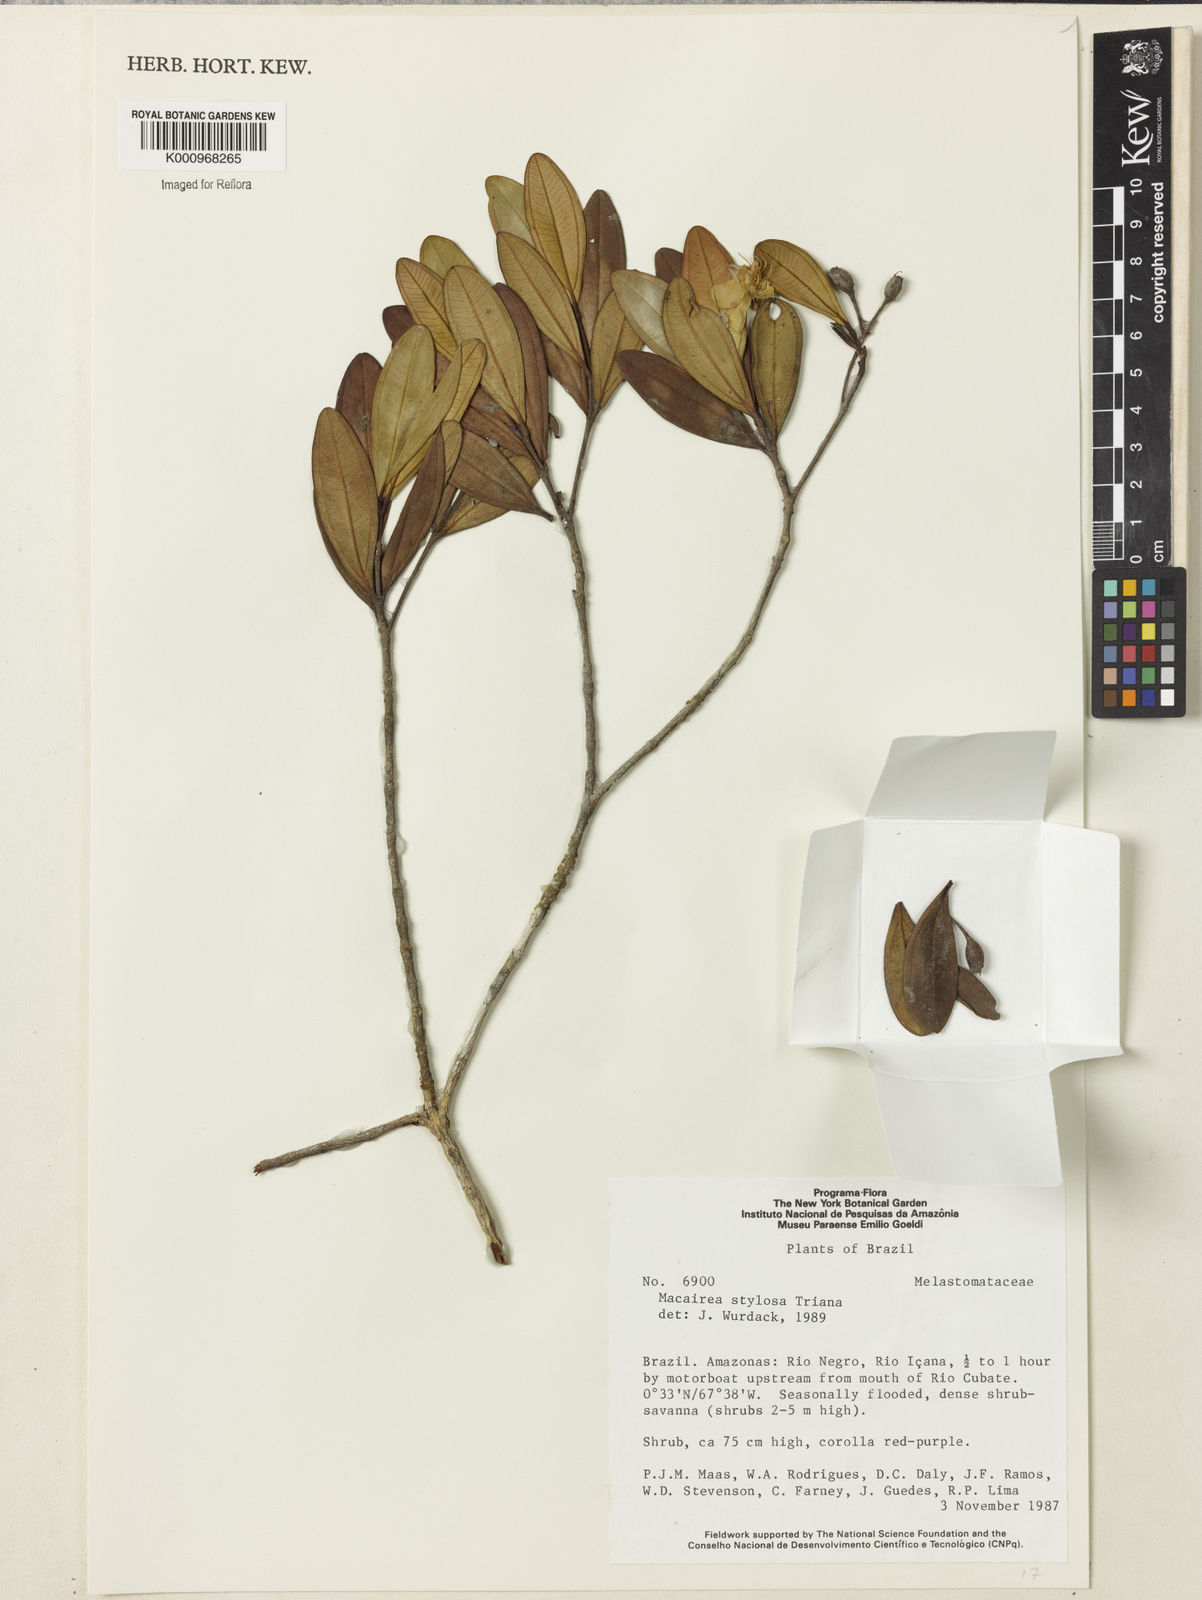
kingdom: Plantae
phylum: Tracheophyta
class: Magnoliopsida
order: Myrtales
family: Melastomataceae
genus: Macairea
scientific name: Macairea stylosa
